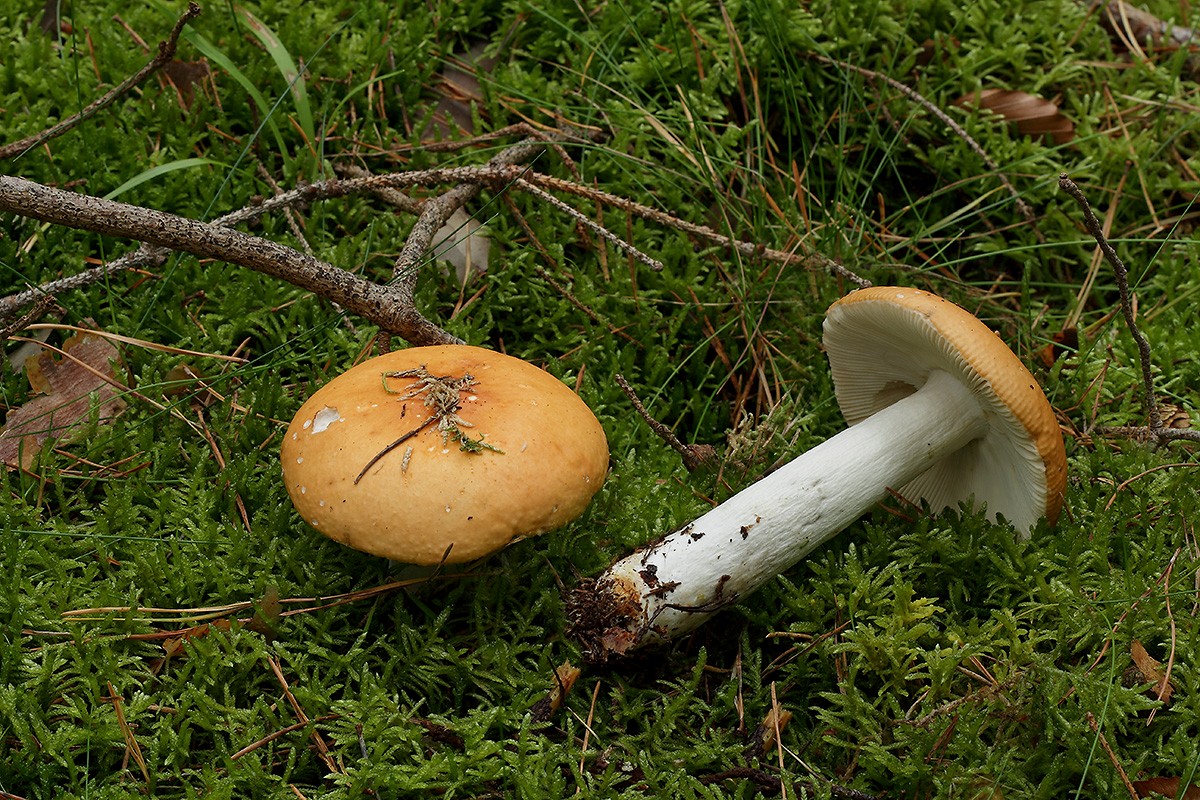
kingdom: Fungi
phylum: Basidiomycota
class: Agaricomycetes
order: Russulales
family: Russulaceae
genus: Russula
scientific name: Russula decolorans
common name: afblegende skørhat
